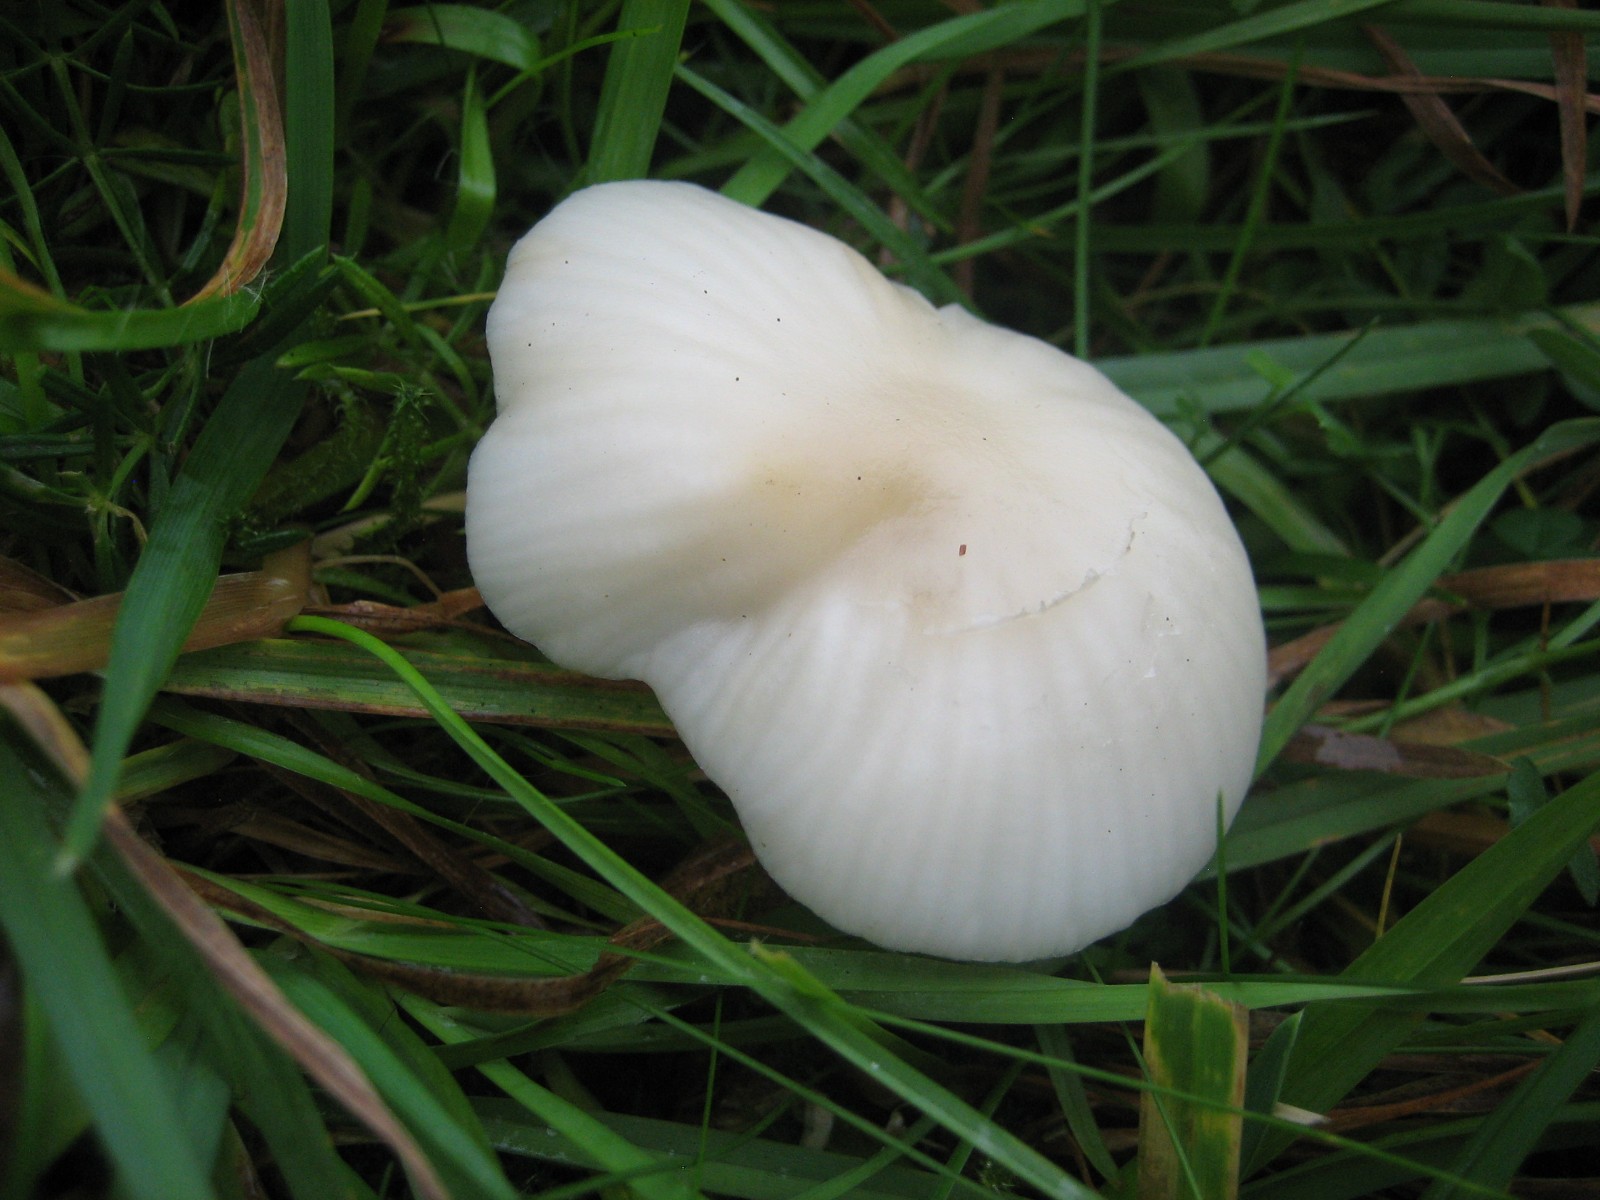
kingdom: Fungi
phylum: Basidiomycota
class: Agaricomycetes
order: Agaricales
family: Hygrophoraceae
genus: Cuphophyllus
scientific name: Cuphophyllus virgineus
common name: snehvid vokshat
